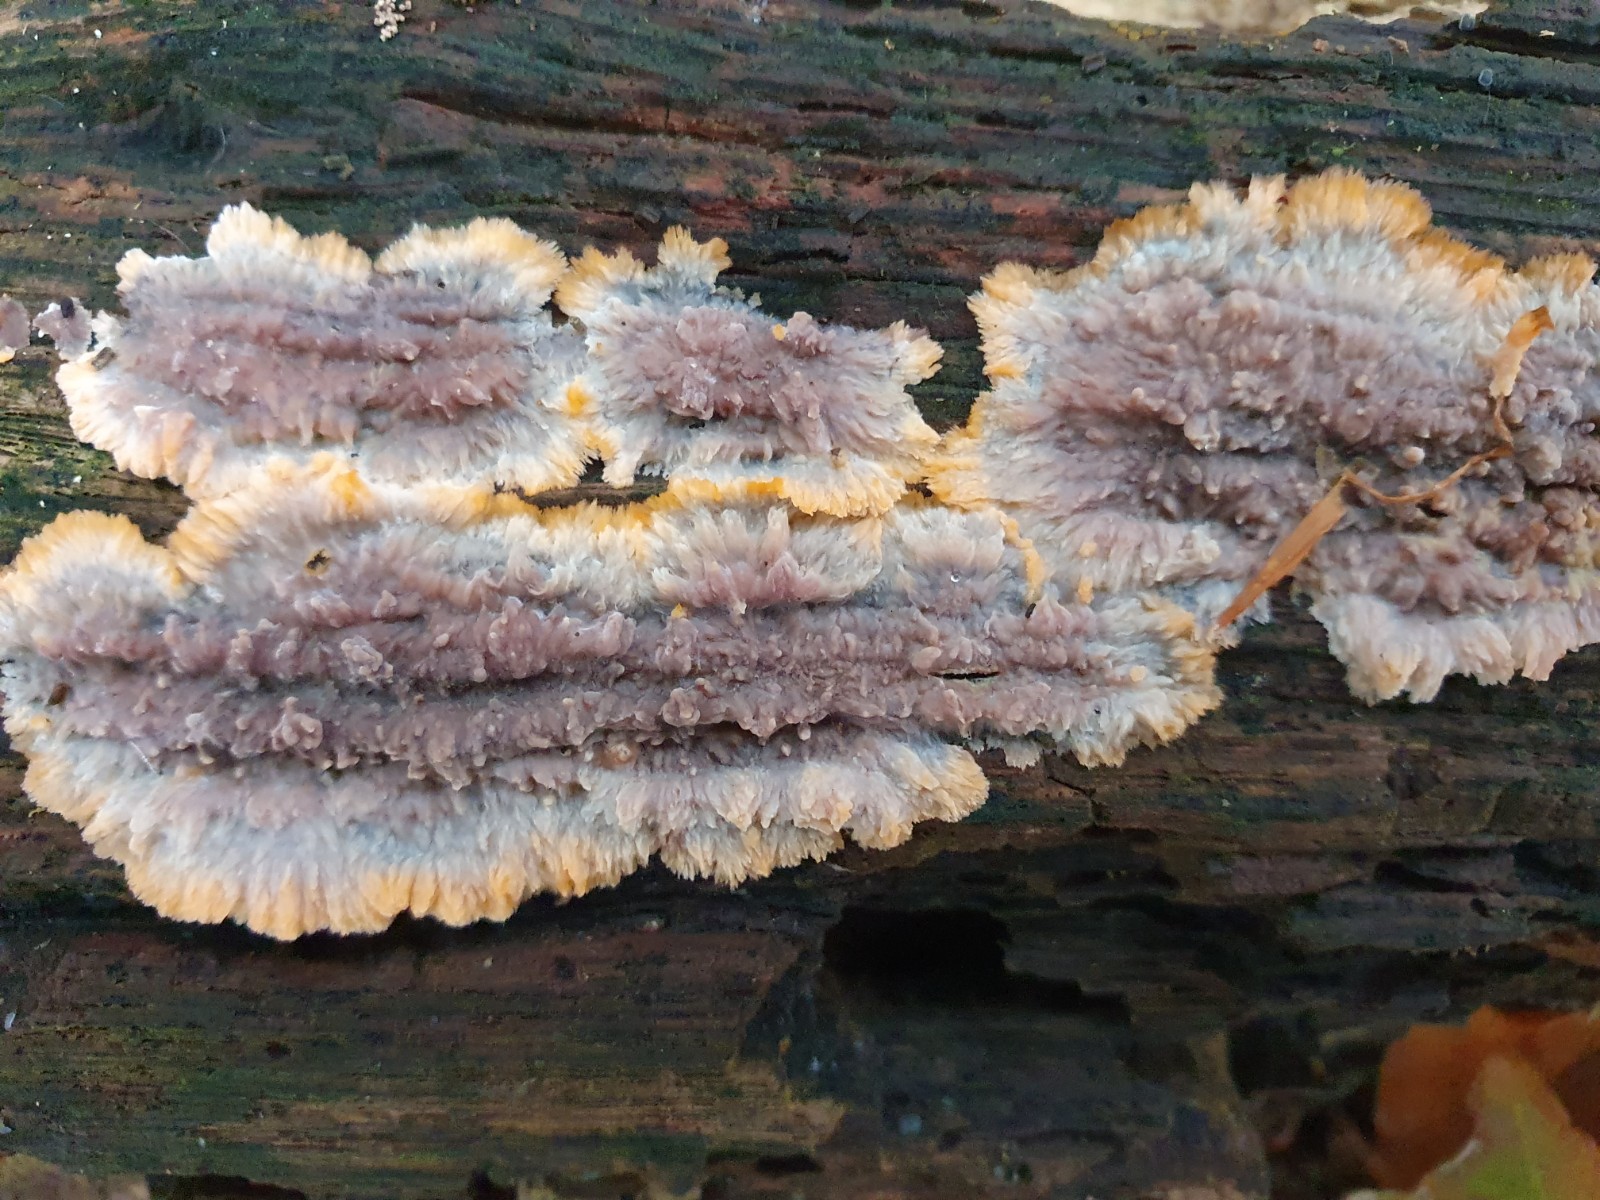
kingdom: Fungi
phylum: Basidiomycota
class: Agaricomycetes
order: Polyporales
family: Meruliaceae
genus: Phlebia
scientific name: Phlebia radiata
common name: stråle-åresvamp
